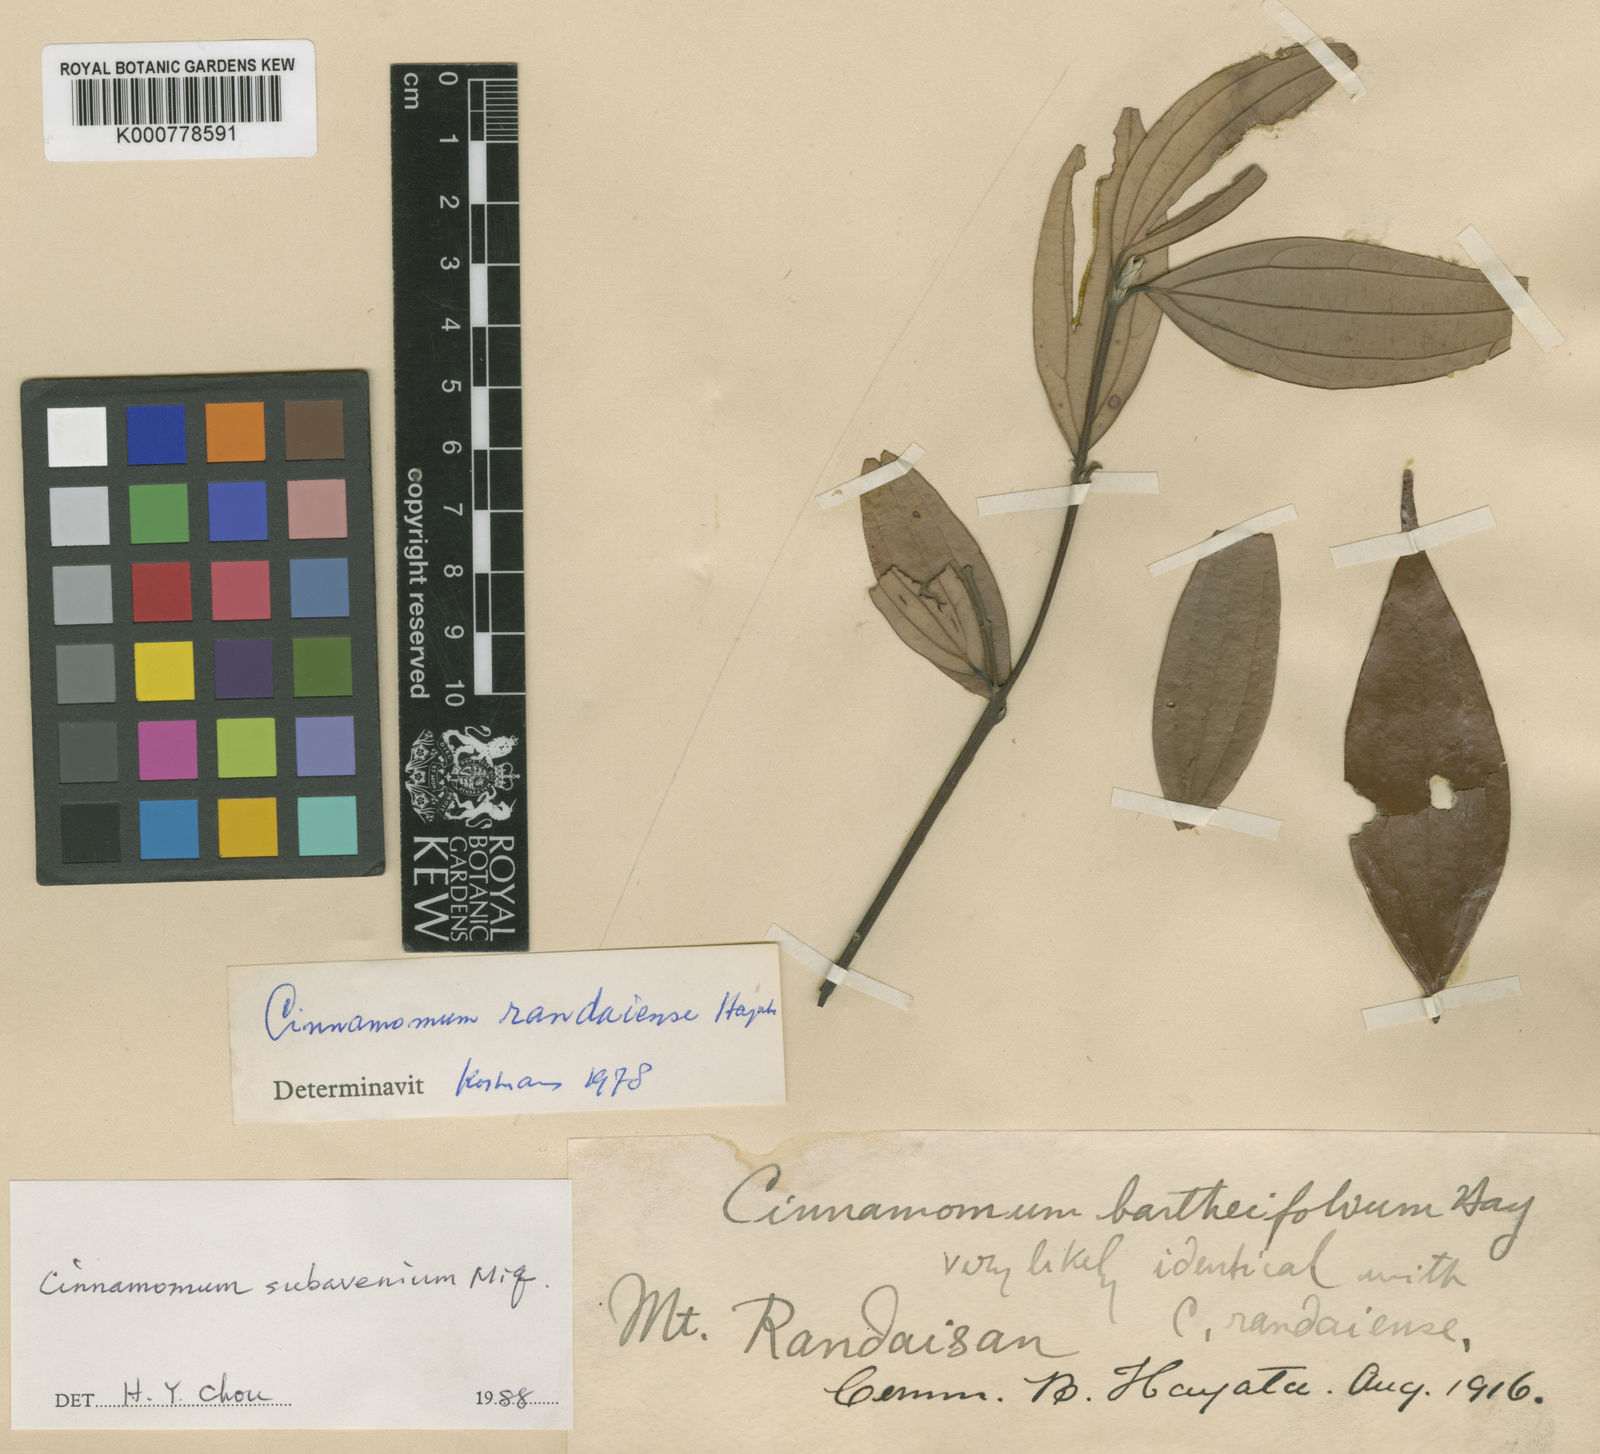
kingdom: Plantae
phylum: Tracheophyta
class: Magnoliopsida
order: Laurales
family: Lauraceae
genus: Cinnamomum
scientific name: Cinnamomum subavenium
